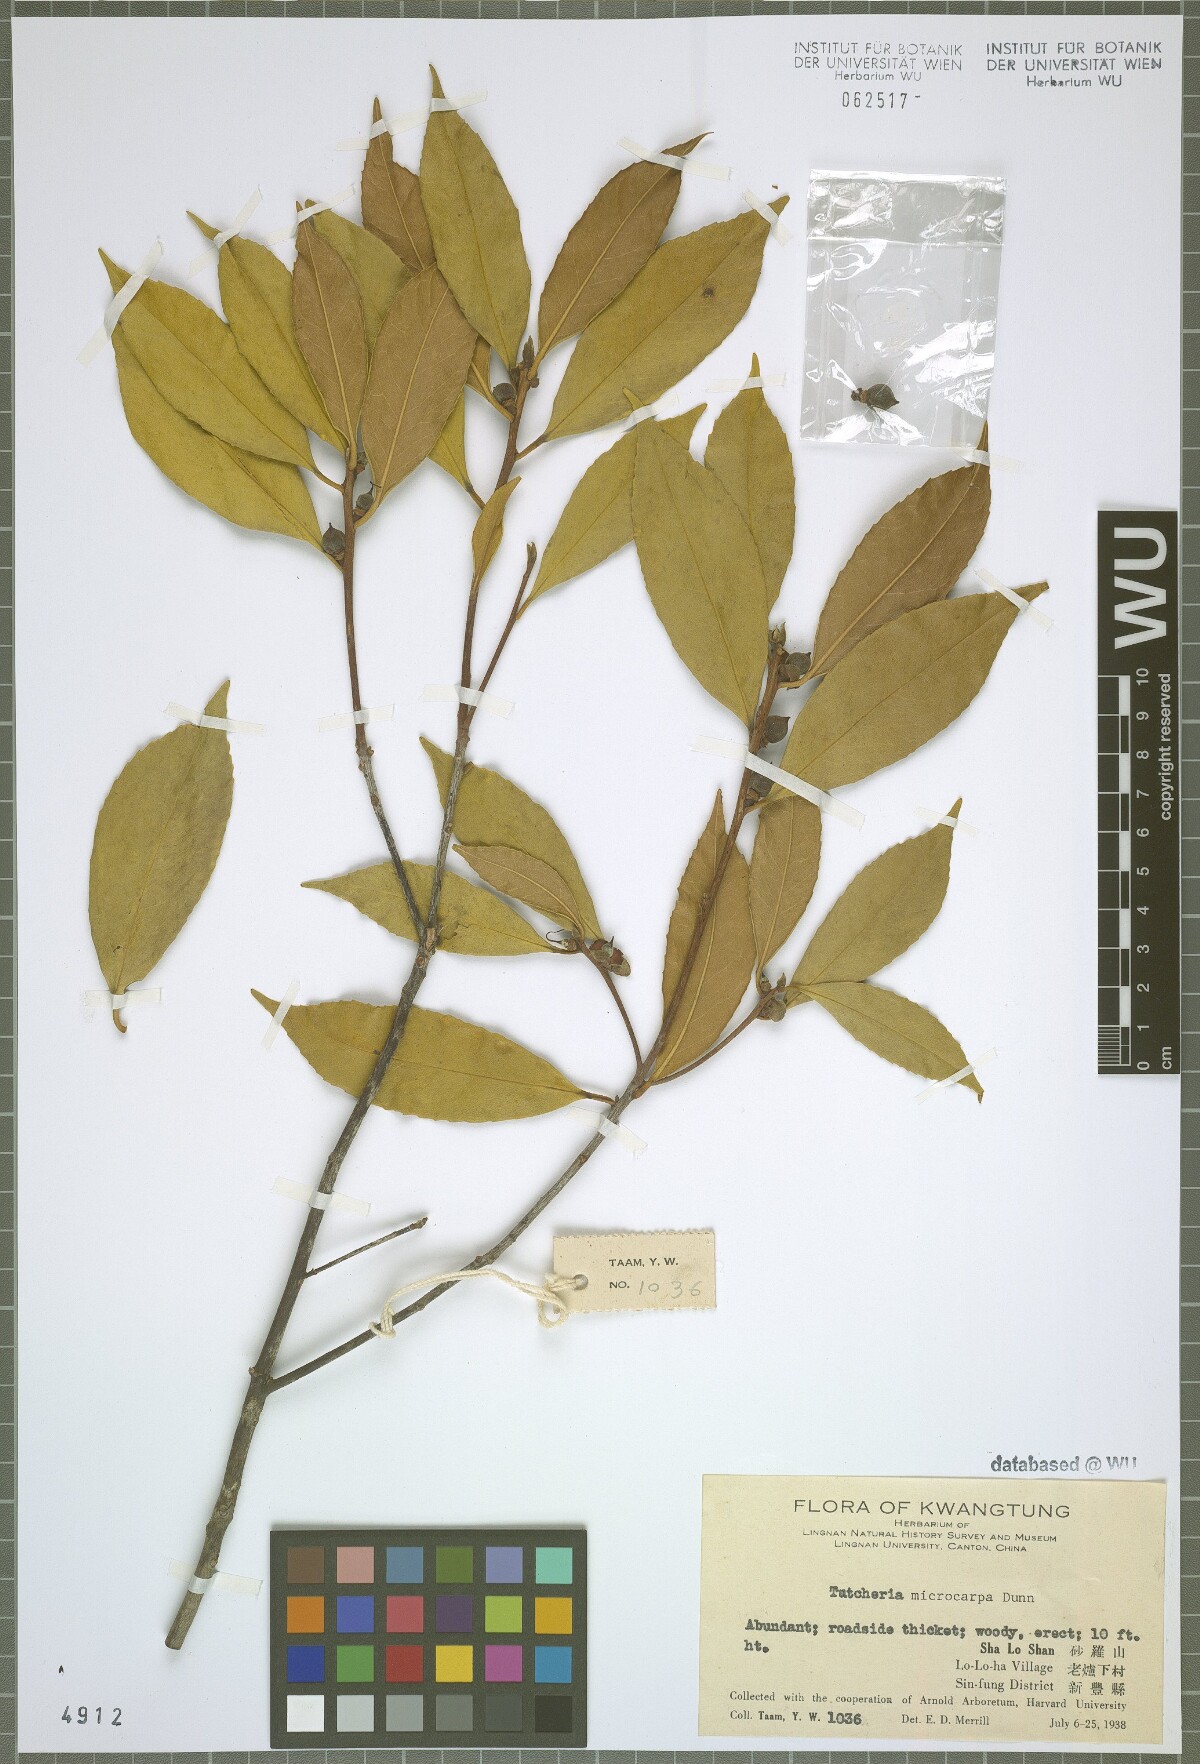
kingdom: Plantae
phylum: Tracheophyta
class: Magnoliopsida
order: Ericales
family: Theaceae
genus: Pyrenaria
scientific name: Pyrenaria microcarpa
